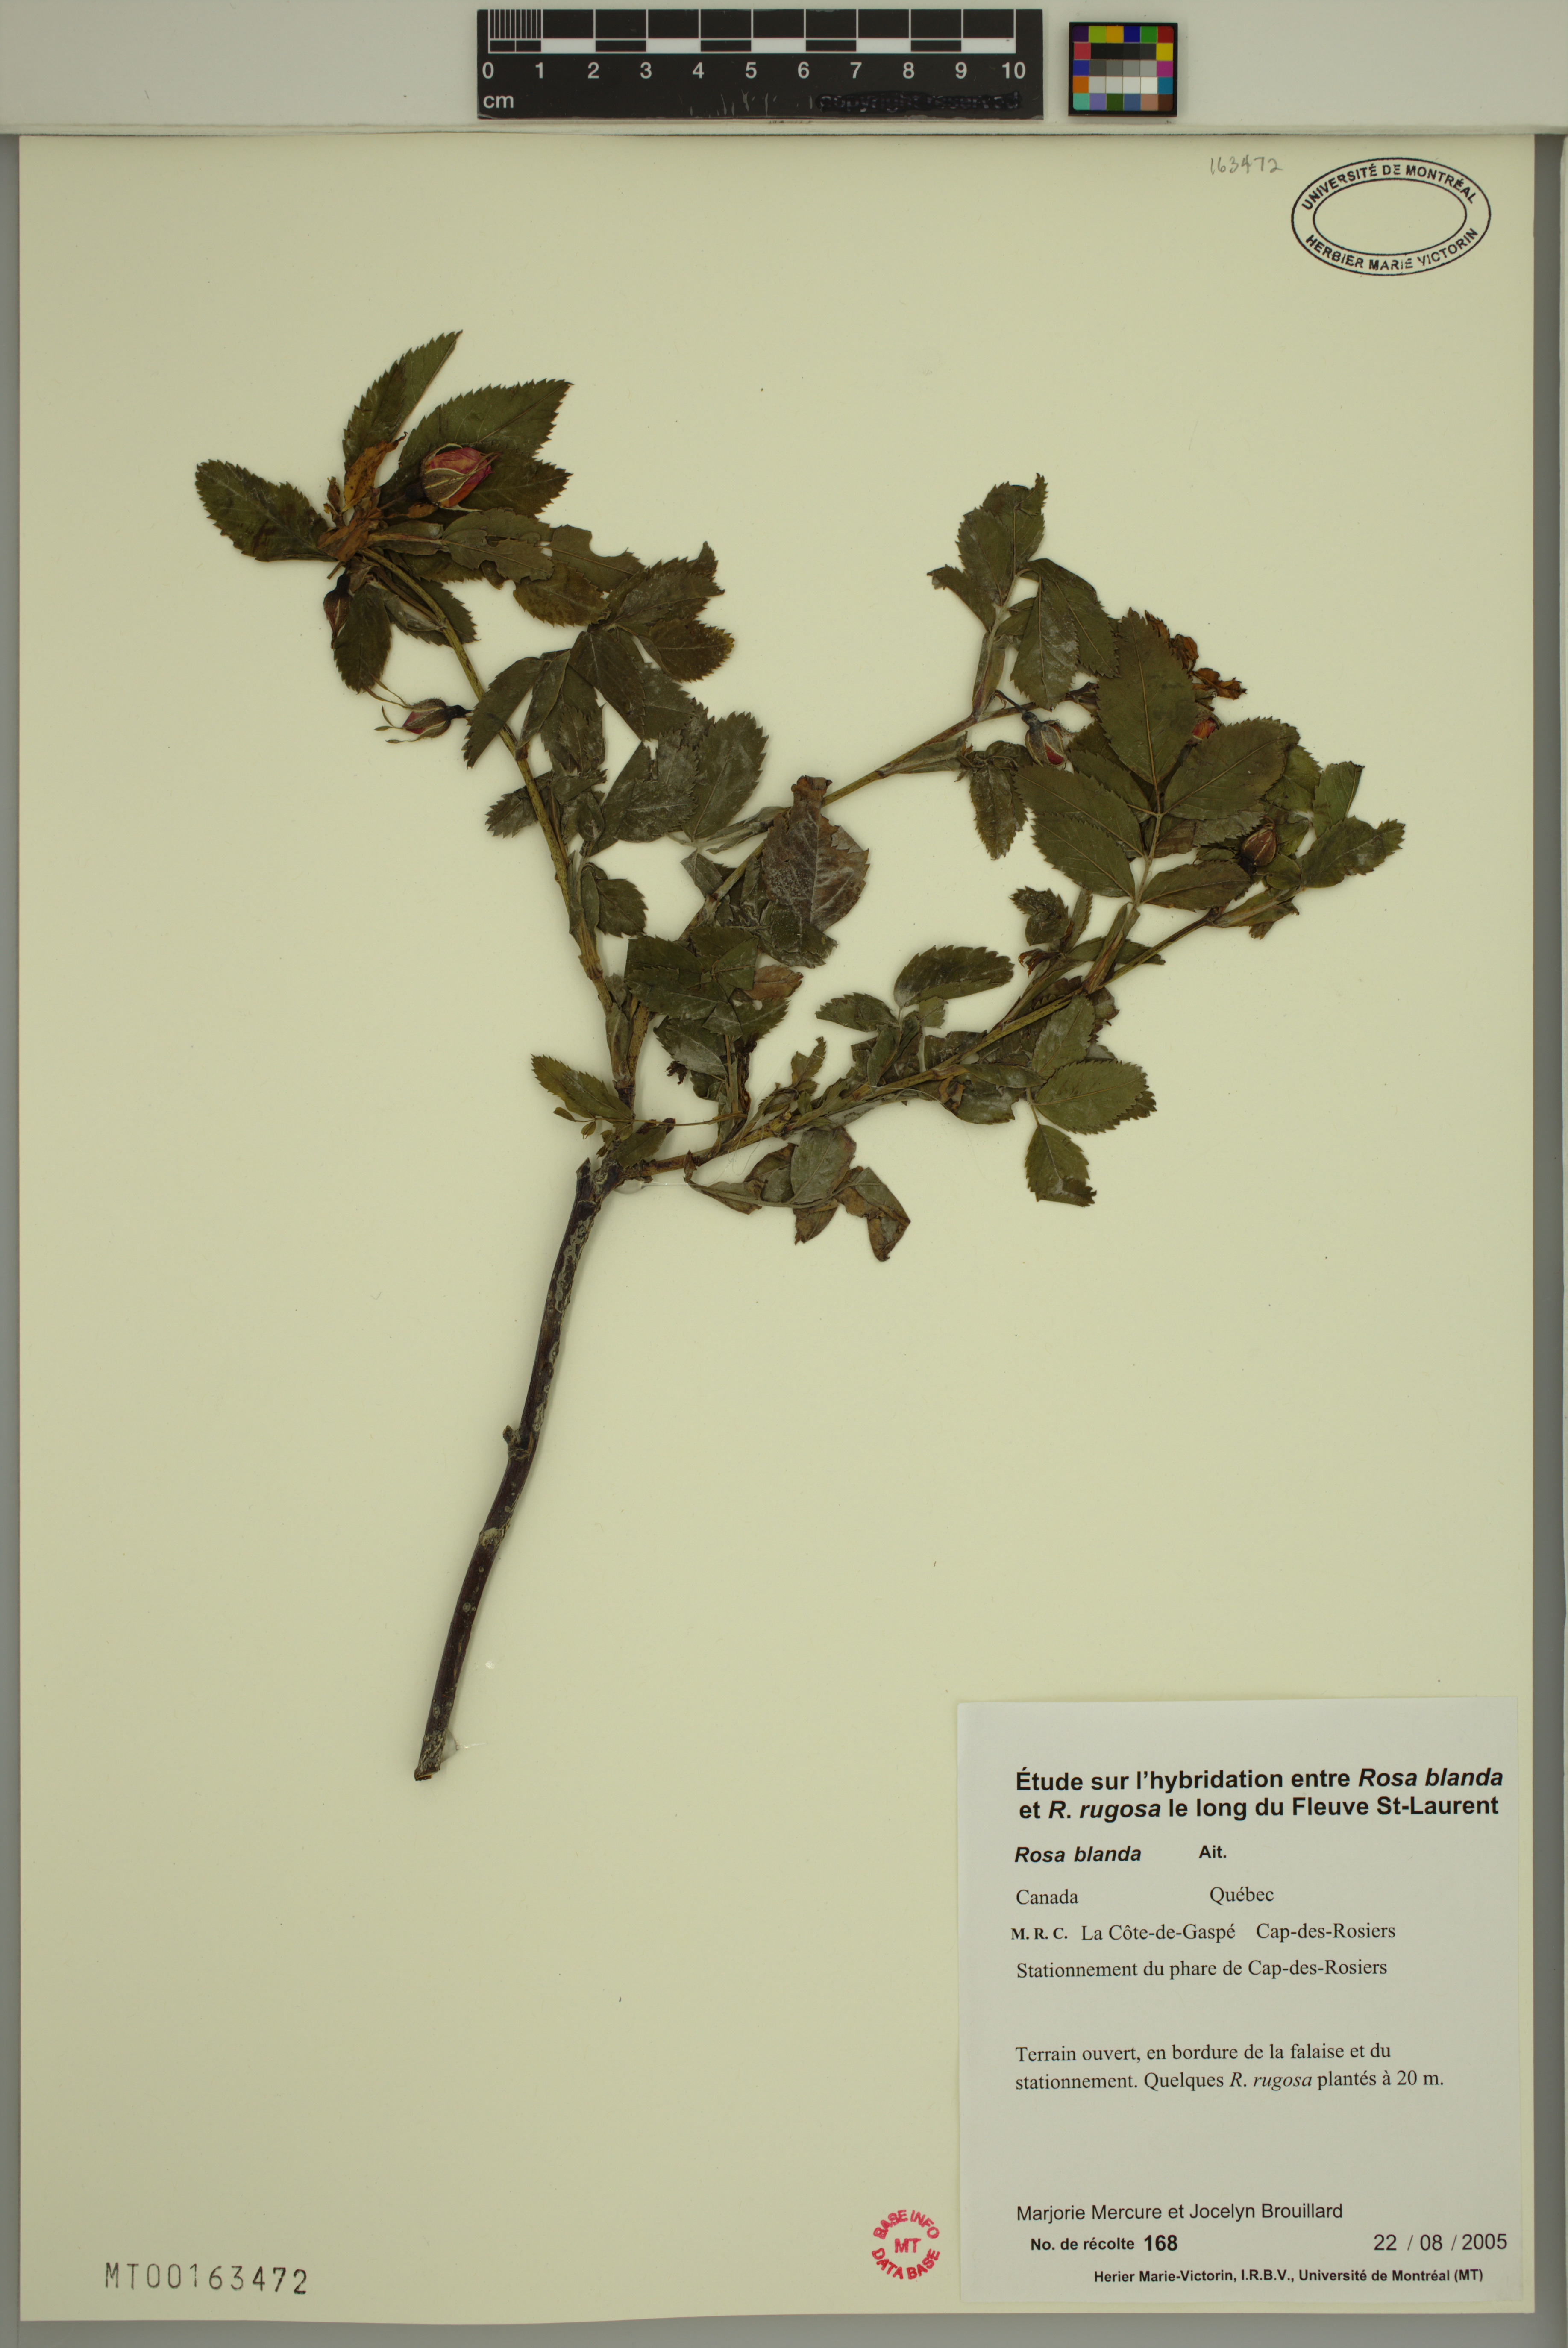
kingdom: Plantae
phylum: Tracheophyta
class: Magnoliopsida
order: Rosales
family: Rosaceae
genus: Rosa
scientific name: Rosa blanda
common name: Smooth rose
